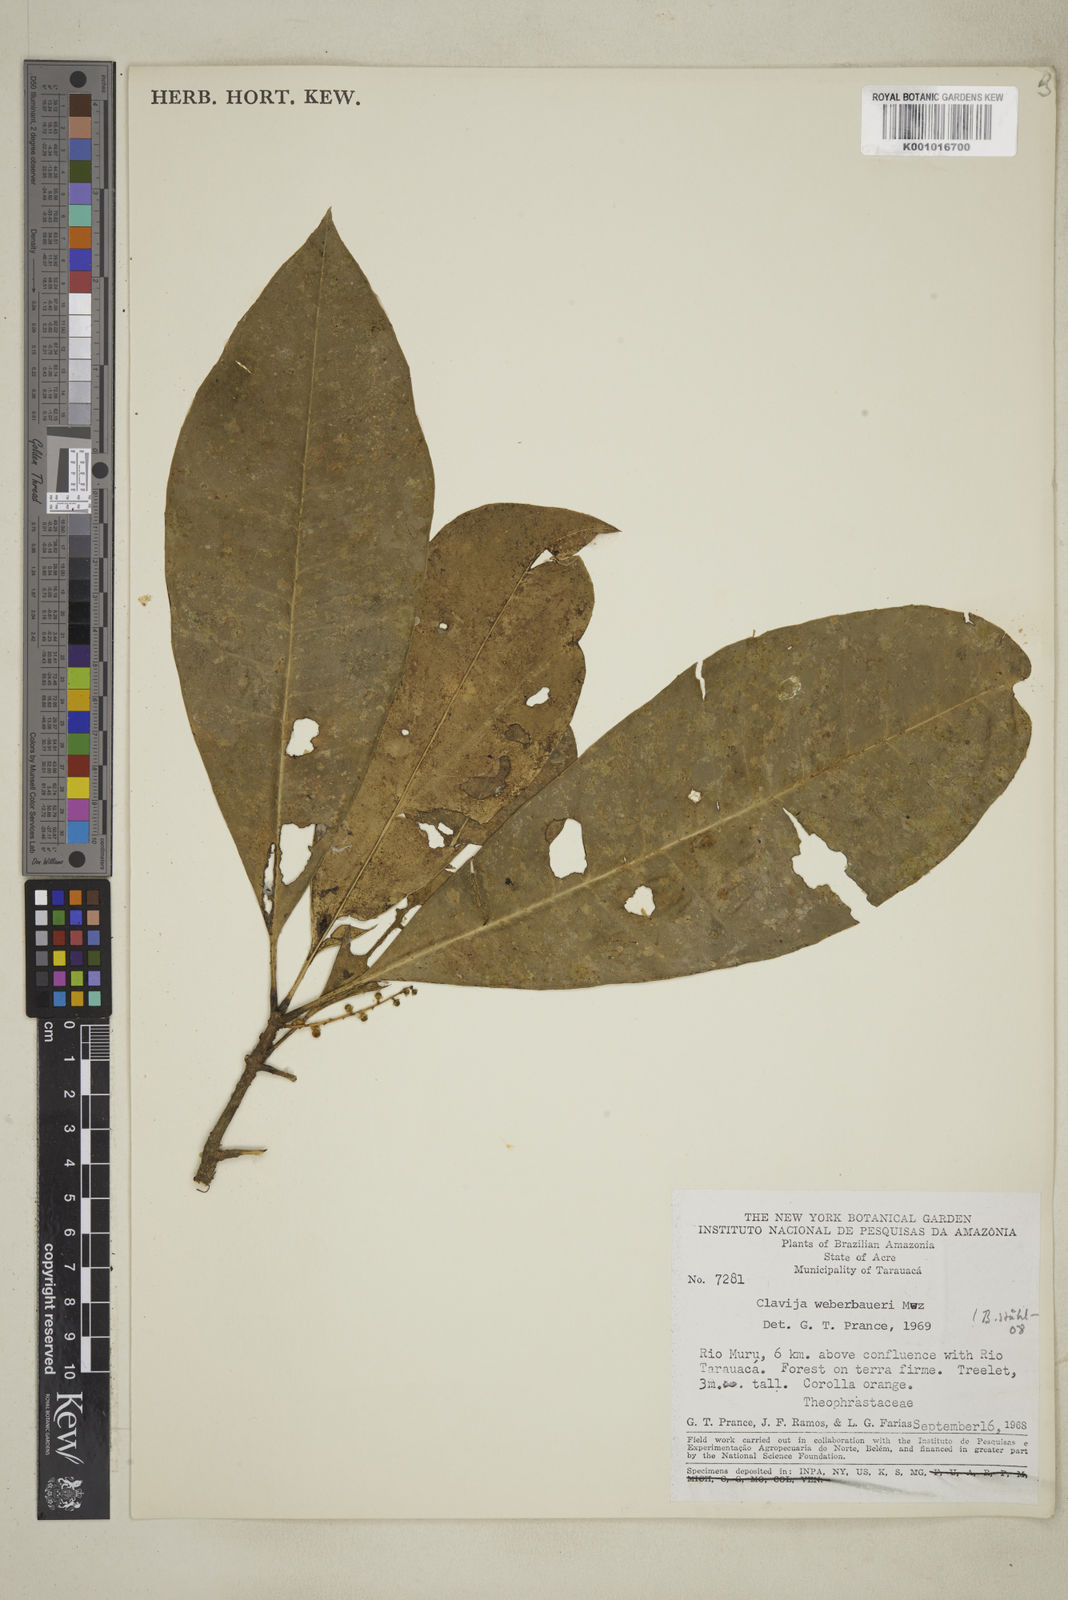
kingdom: Plantae
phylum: Tracheophyta
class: Magnoliopsida
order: Lamiales
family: Bignoniaceae
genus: Lundia
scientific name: Lundia longa
